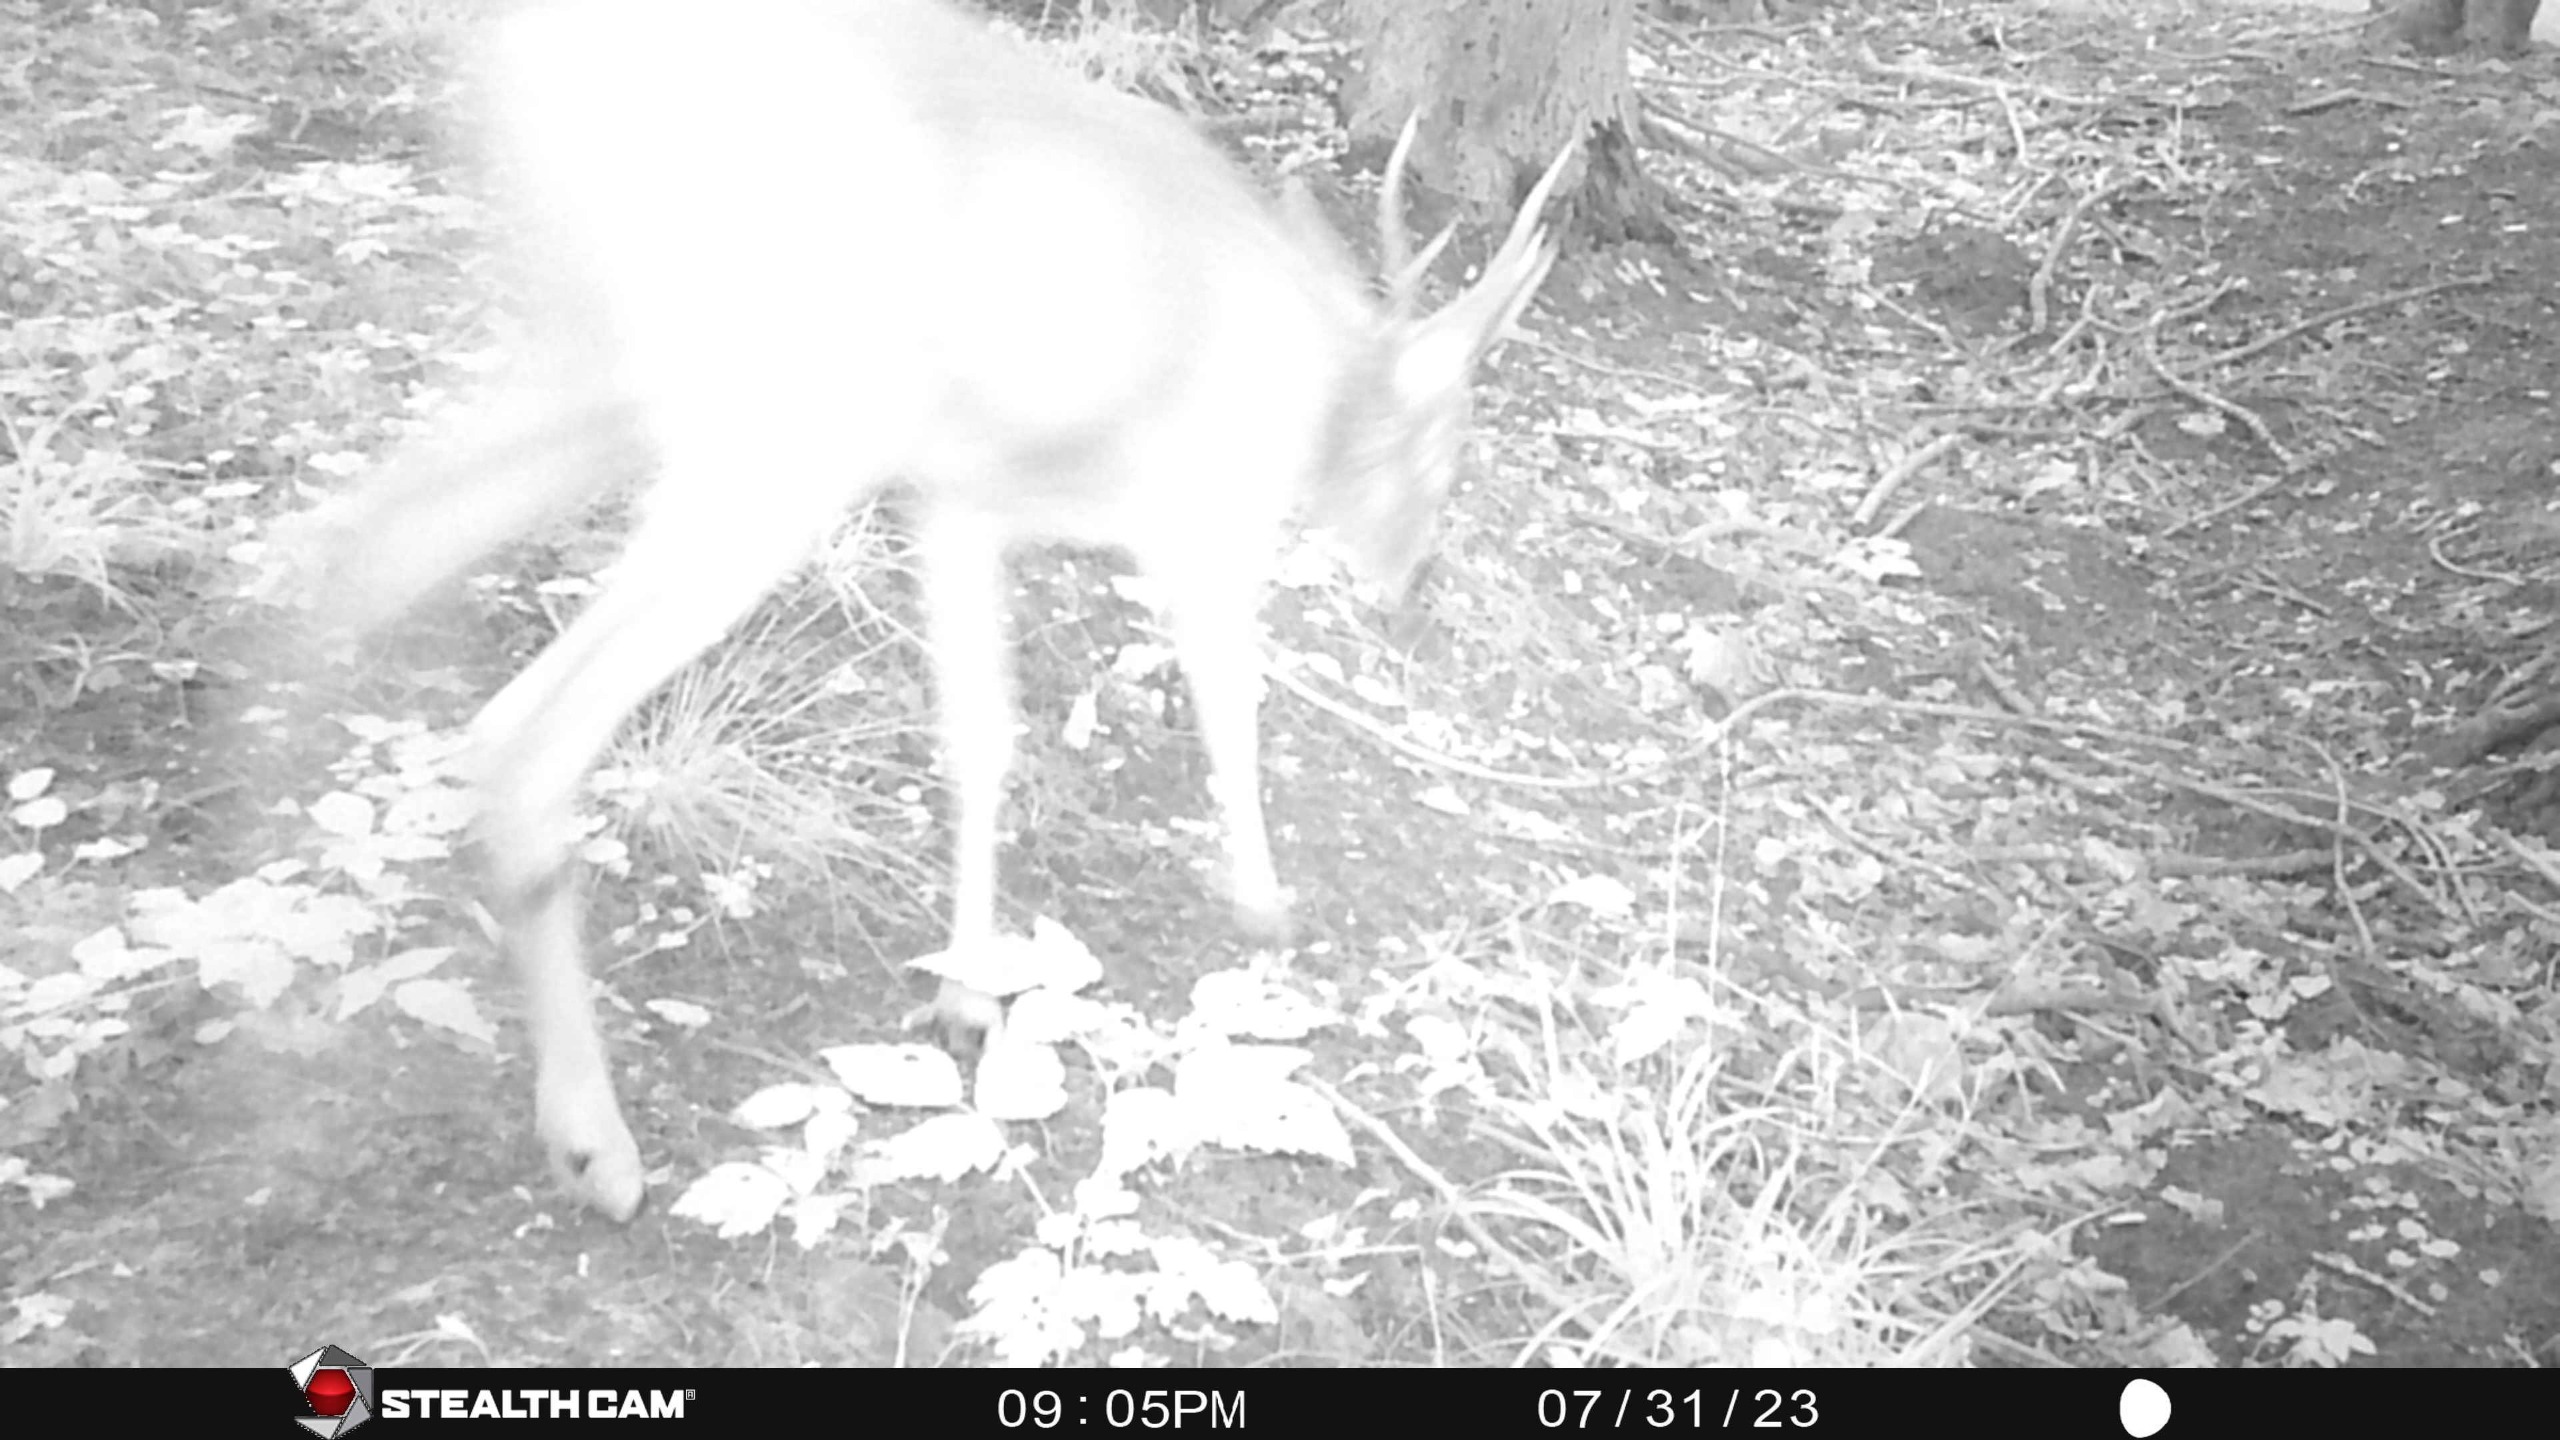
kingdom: Animalia
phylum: Chordata
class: Mammalia
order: Artiodactyla
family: Cervidae
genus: Capreolus
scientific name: Capreolus capreolus
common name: Rådyr
